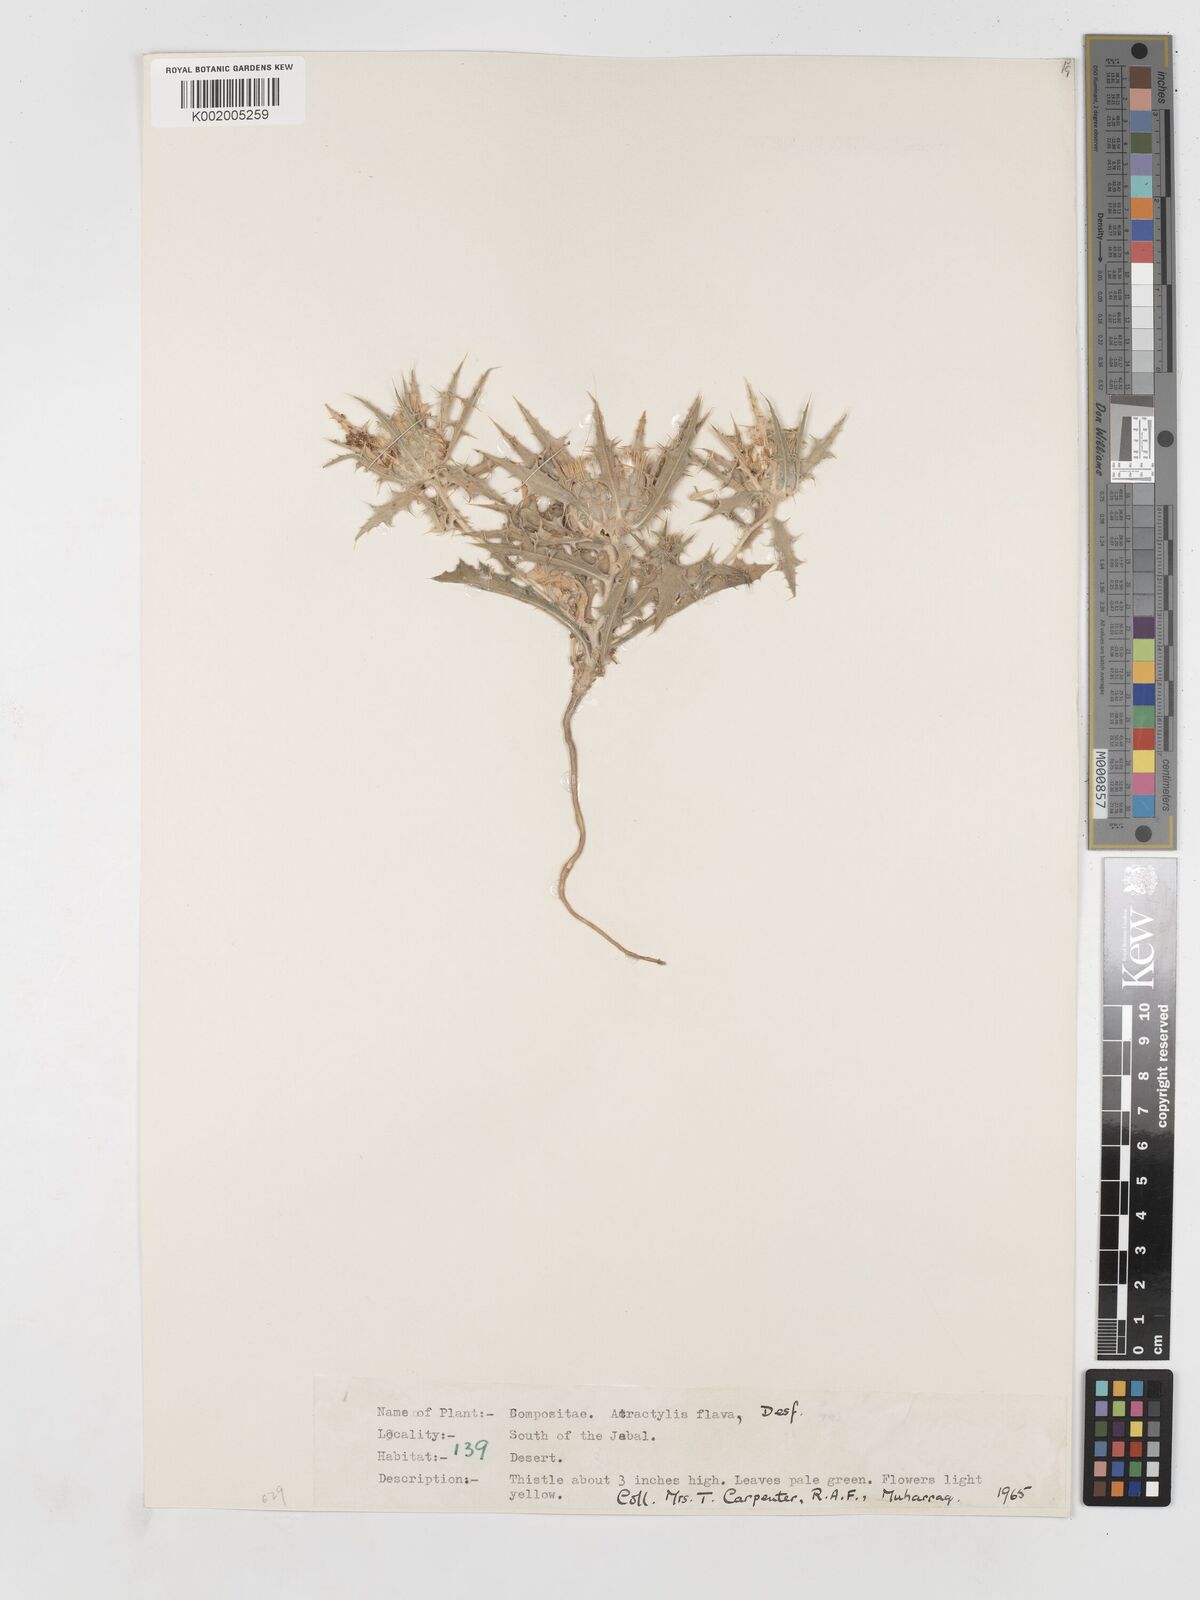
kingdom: Plantae
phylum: Tracheophyta
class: Magnoliopsida
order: Asterales
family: Asteraceae
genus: Atractylis
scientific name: Atractylis carduus
